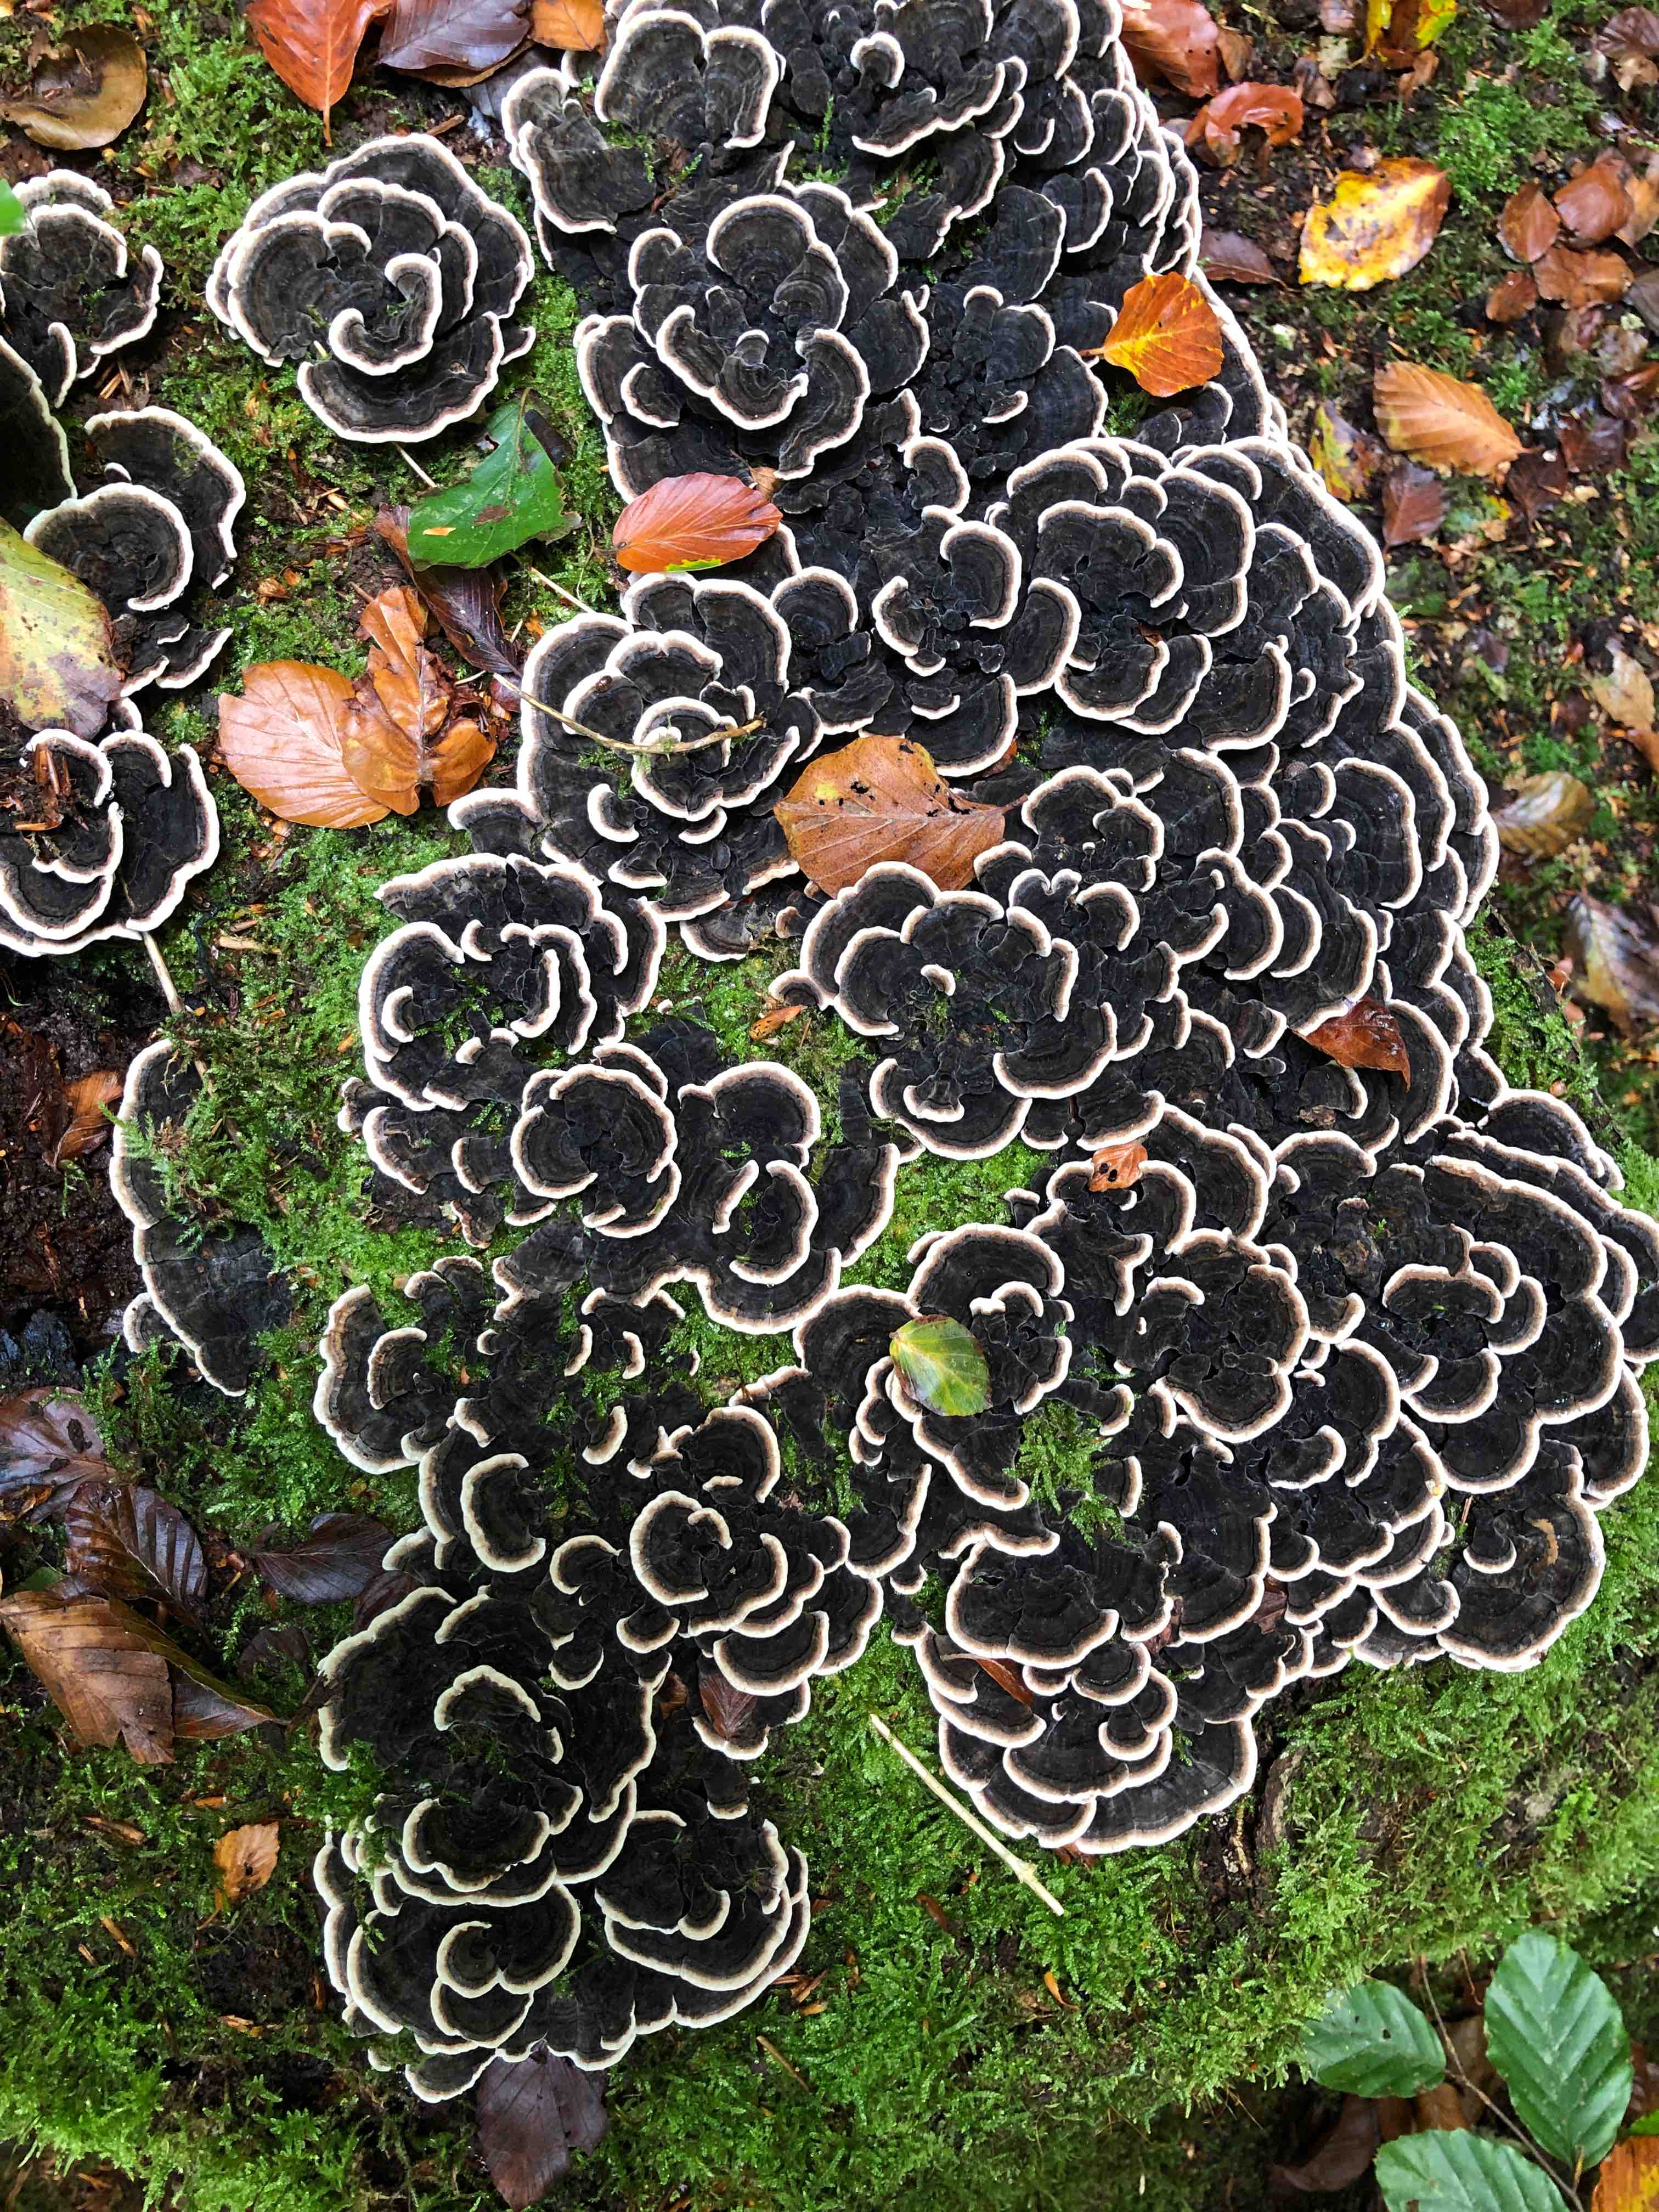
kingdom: Fungi
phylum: Basidiomycota
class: Agaricomycetes
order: Polyporales
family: Polyporaceae
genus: Trametes
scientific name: Trametes versicolor
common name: broget læderporesvamp
